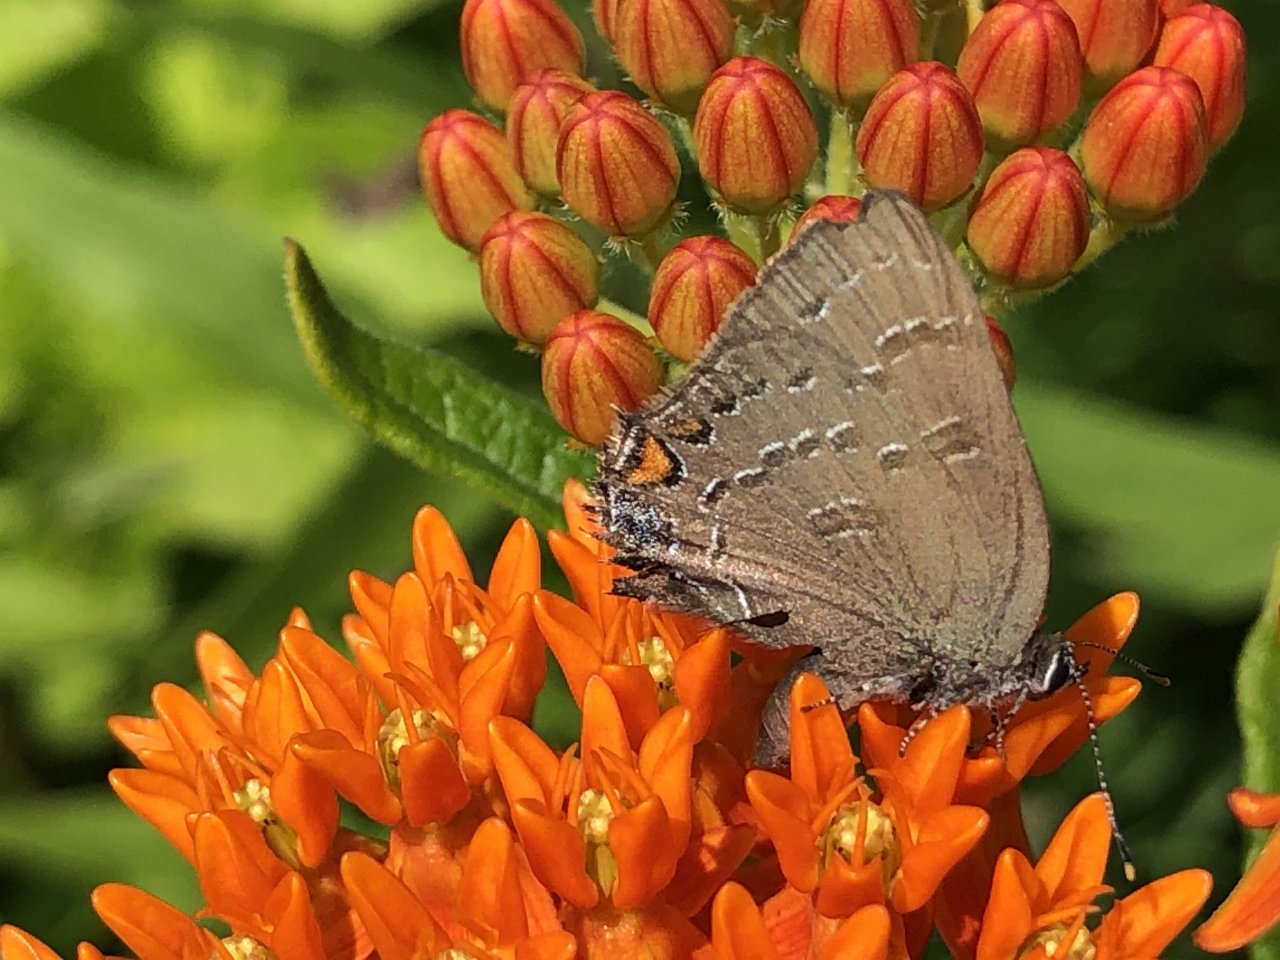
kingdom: Animalia
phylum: Arthropoda
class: Insecta
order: Lepidoptera
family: Lycaenidae
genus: Satyrium
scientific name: Satyrium calanus
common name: Banded Hairstreak
